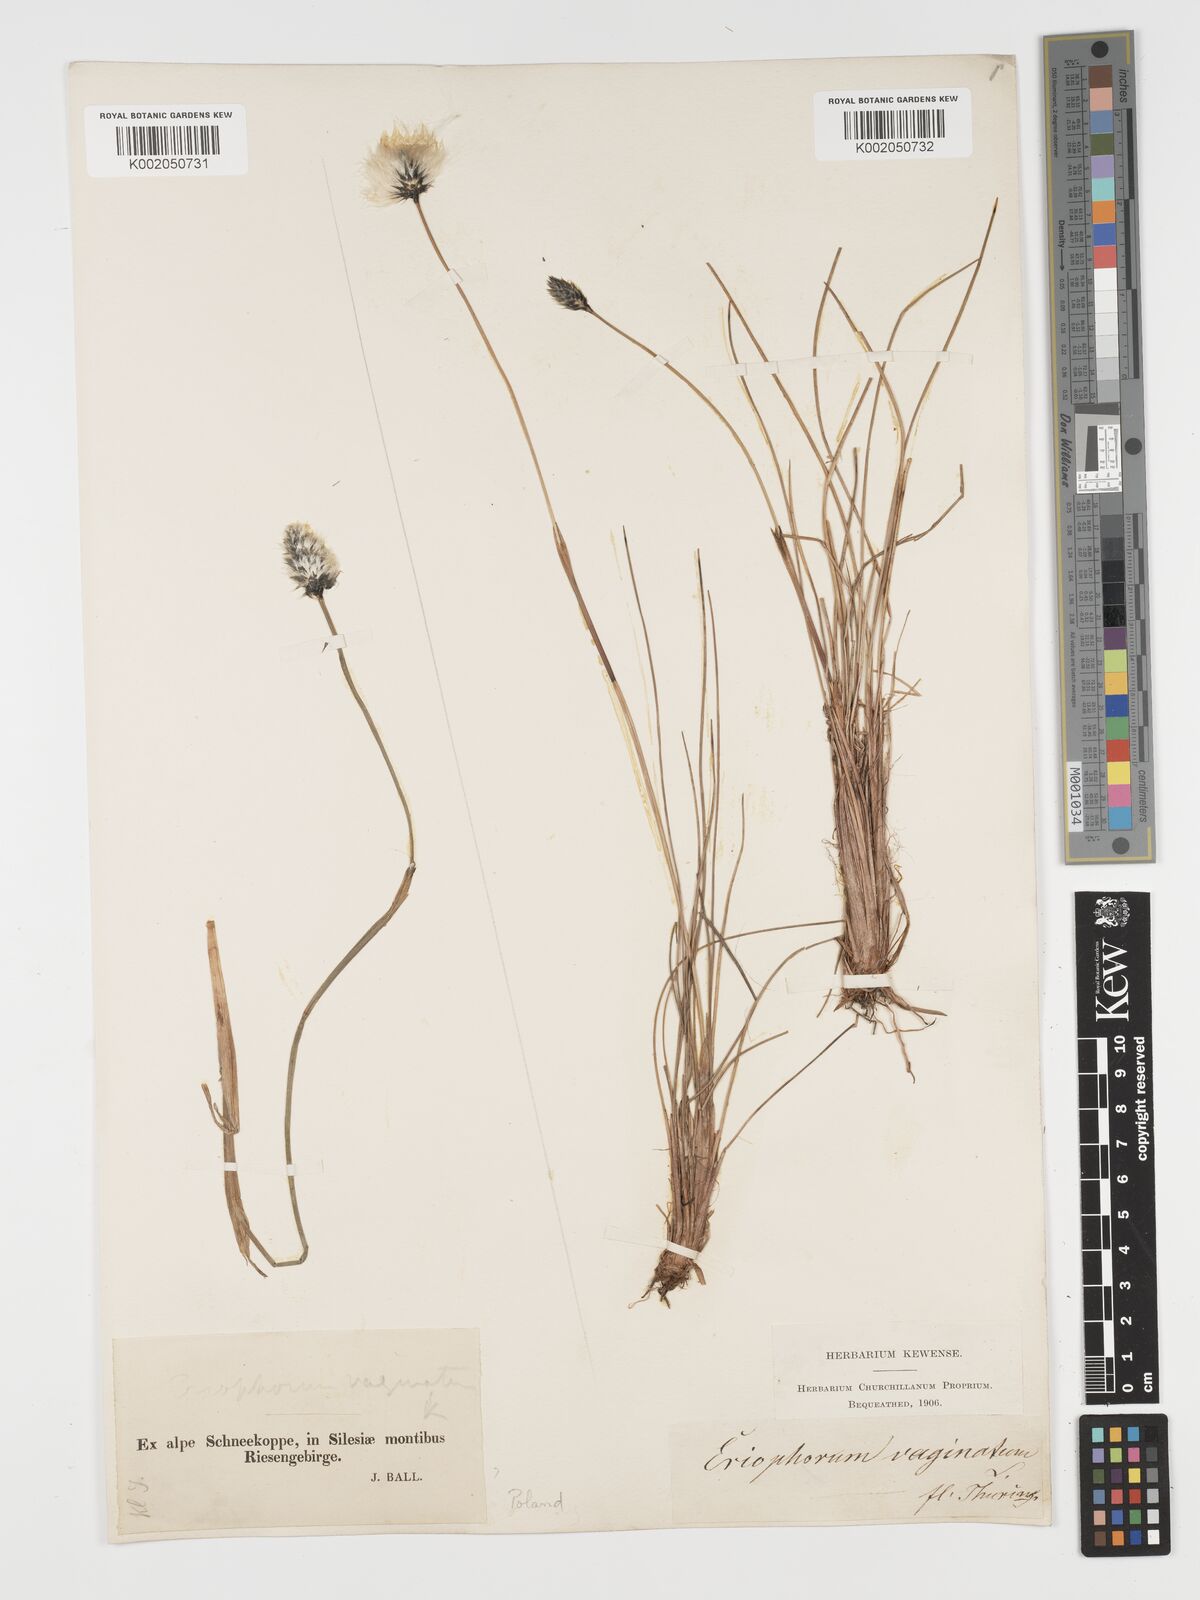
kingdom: Plantae
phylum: Tracheophyta
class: Liliopsida
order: Poales
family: Cyperaceae
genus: Eriophorum
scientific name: Eriophorum vaginatum
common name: Hare's-tail cottongrass
